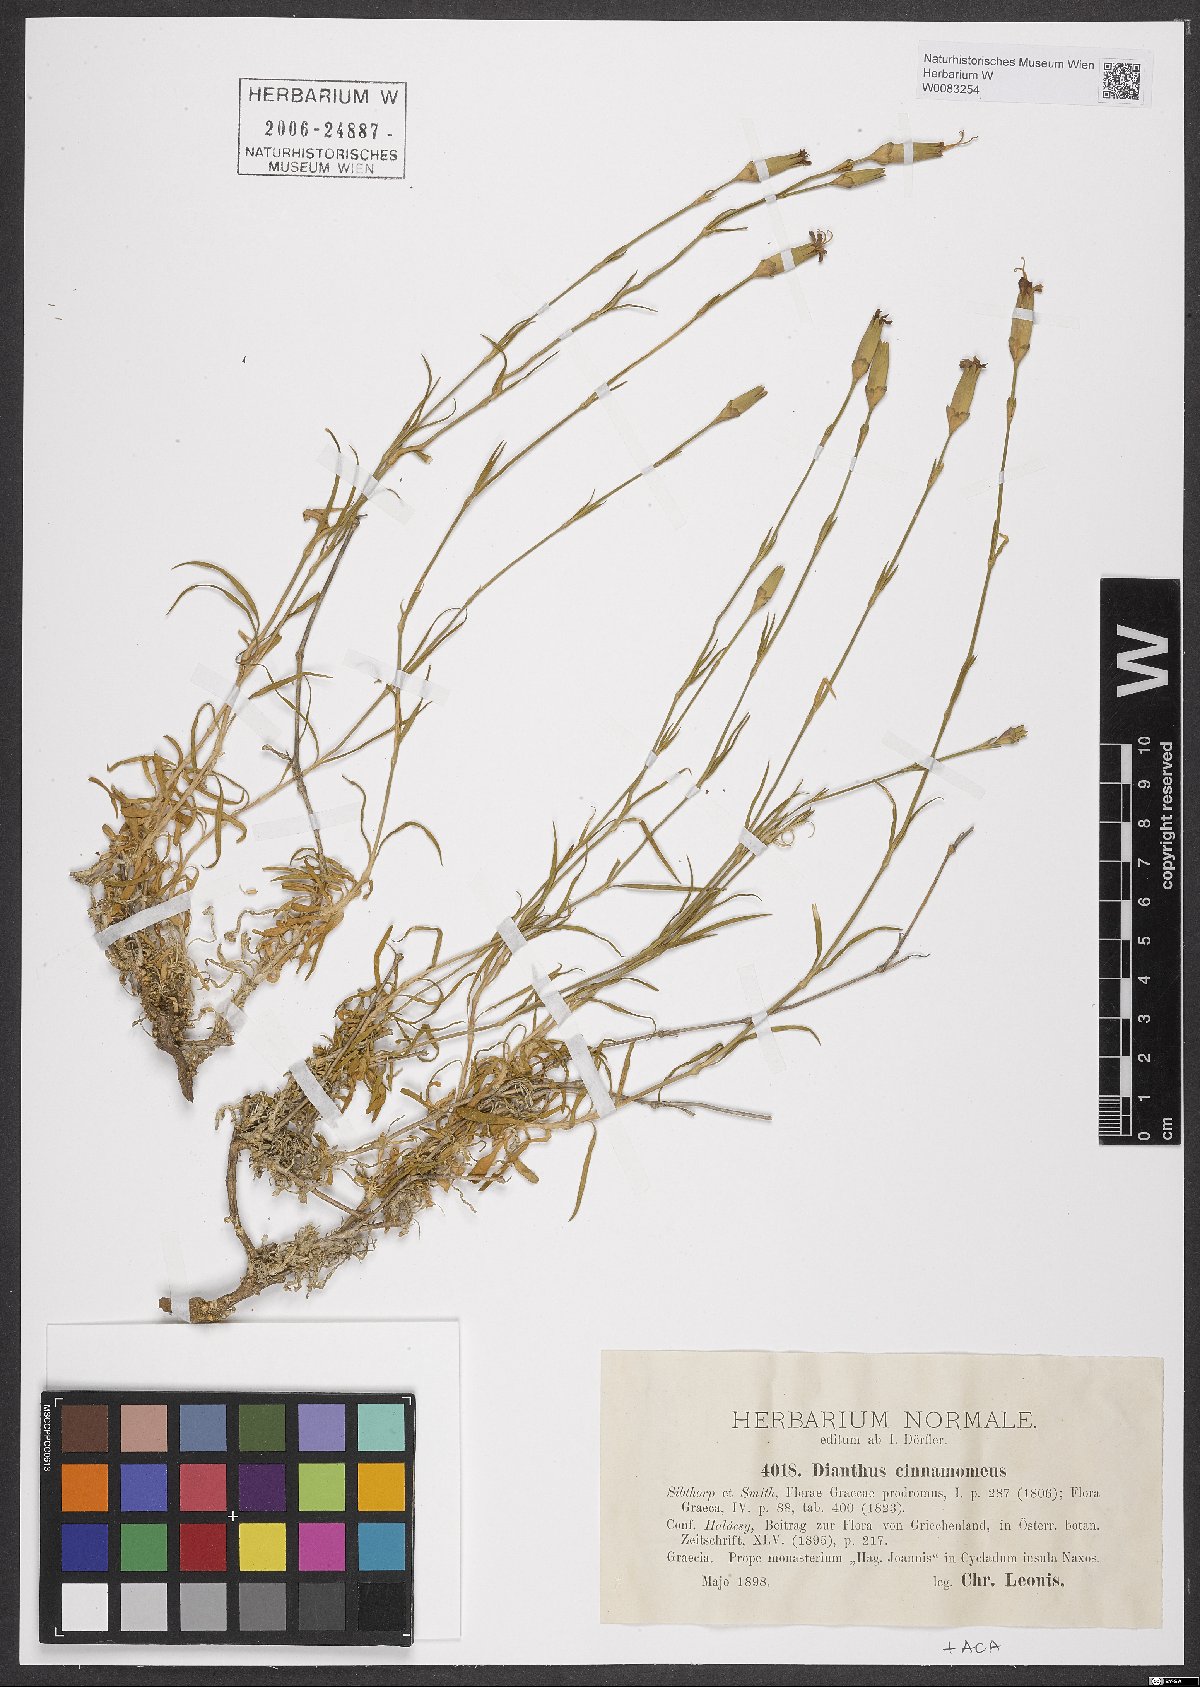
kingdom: Plantae
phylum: Tracheophyta
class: Magnoliopsida
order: Caryophyllales
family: Caryophyllaceae
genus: Dianthus
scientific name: Dianthus cinnamomeus
